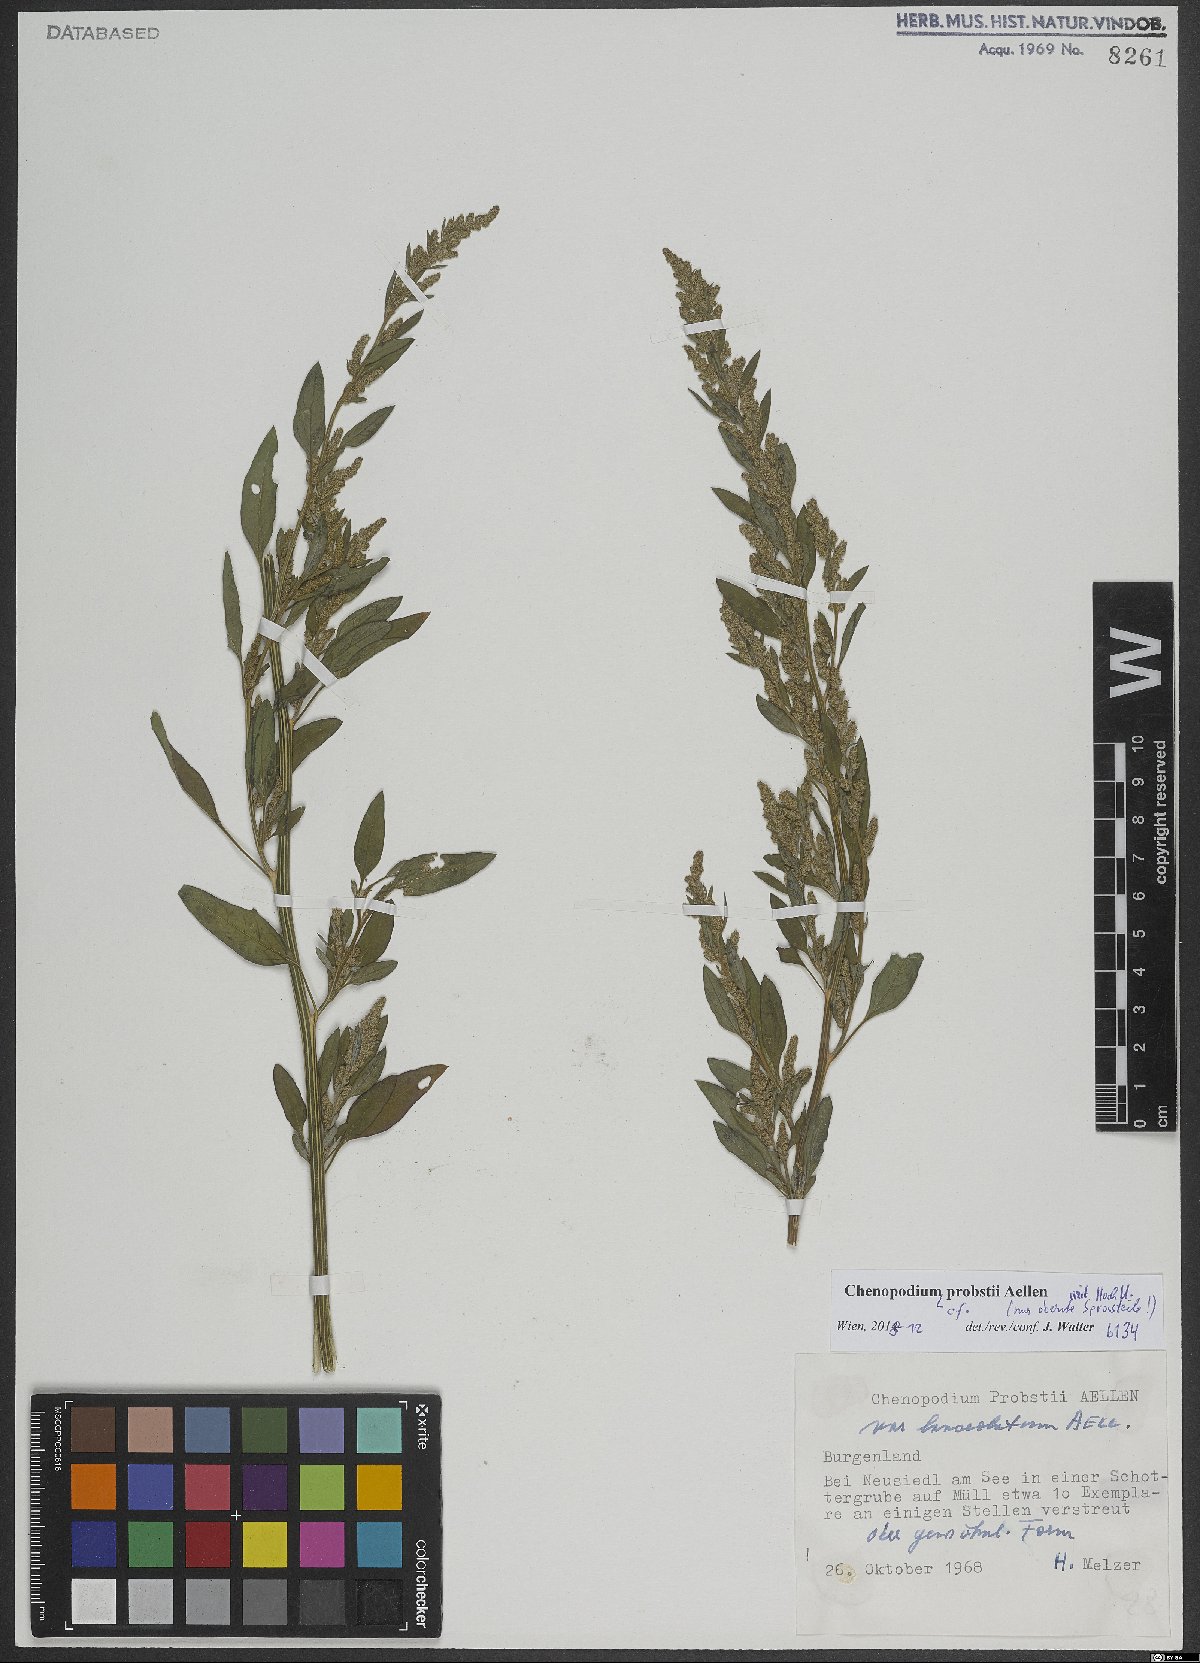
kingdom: Plantae
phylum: Tracheophyta
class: Magnoliopsida
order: Caryophyllales
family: Amaranthaceae
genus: Chenopodium
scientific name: Chenopodium probstii
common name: Probst's goosefoot
